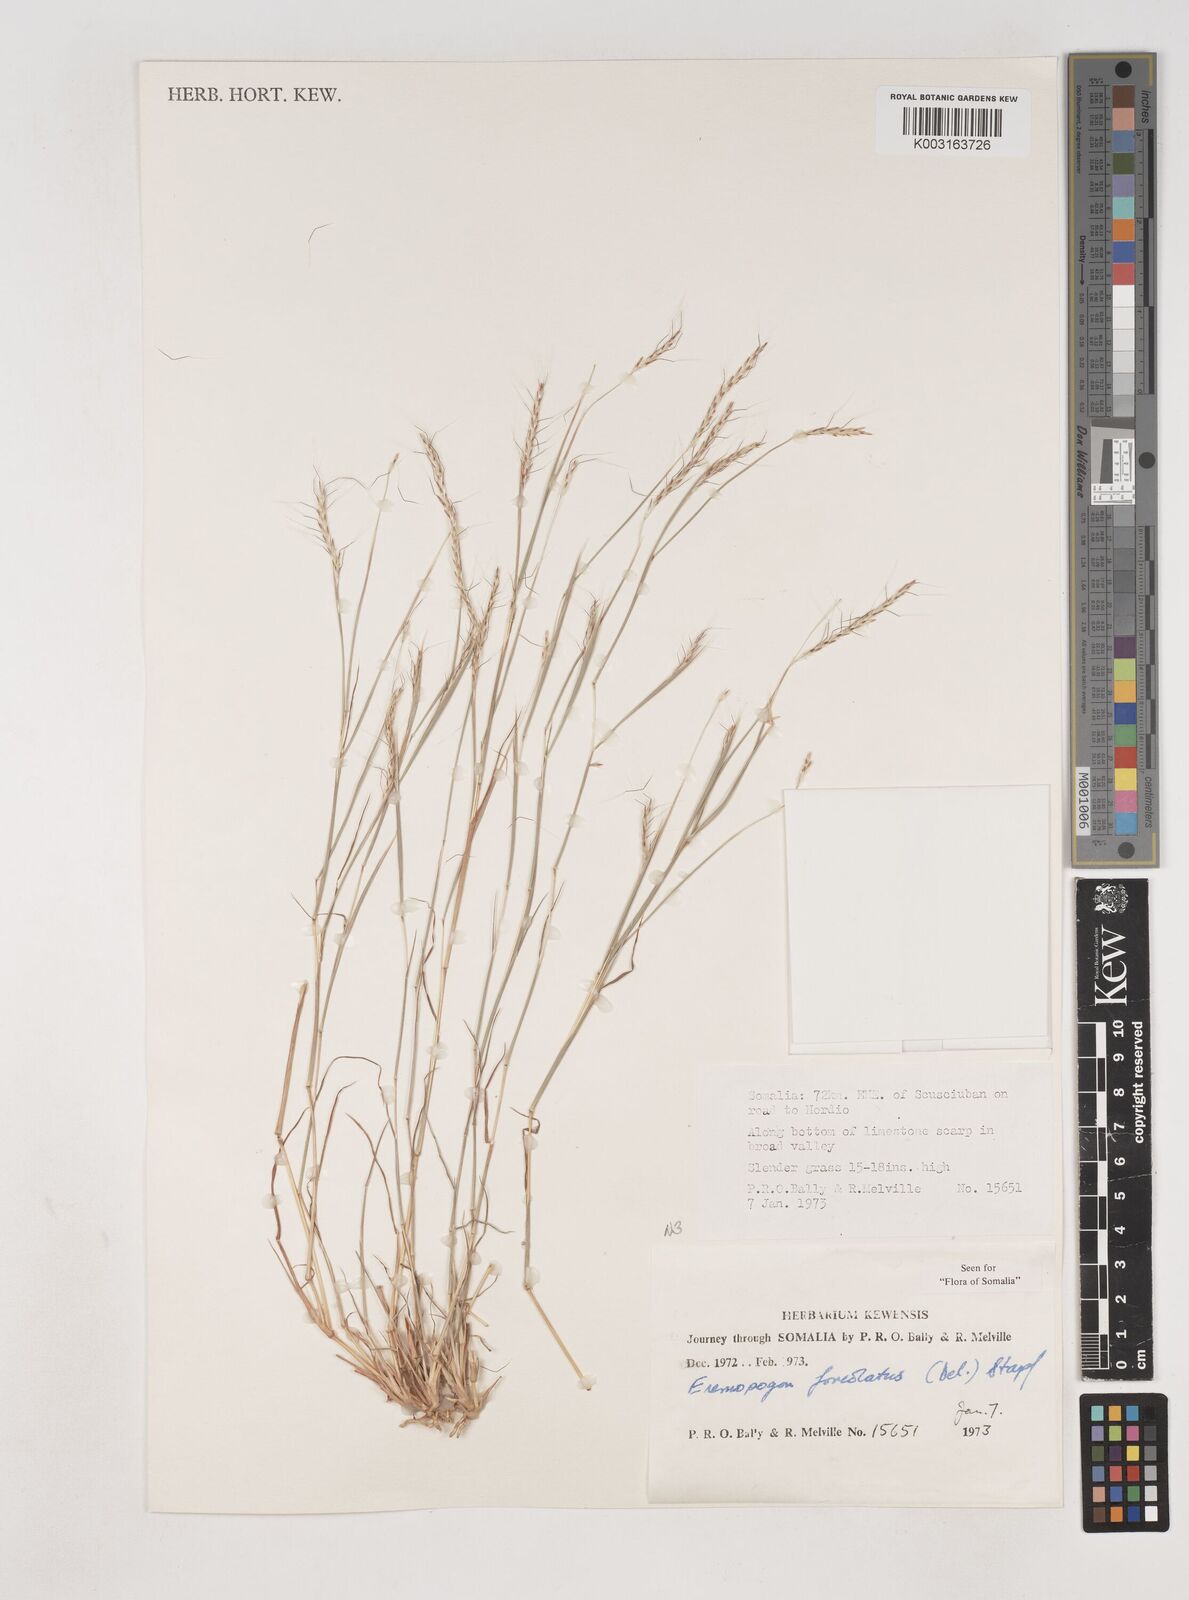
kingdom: Plantae
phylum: Tracheophyta
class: Liliopsida
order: Poales
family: Poaceae
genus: Dichanthium
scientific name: Dichanthium foveolatum
